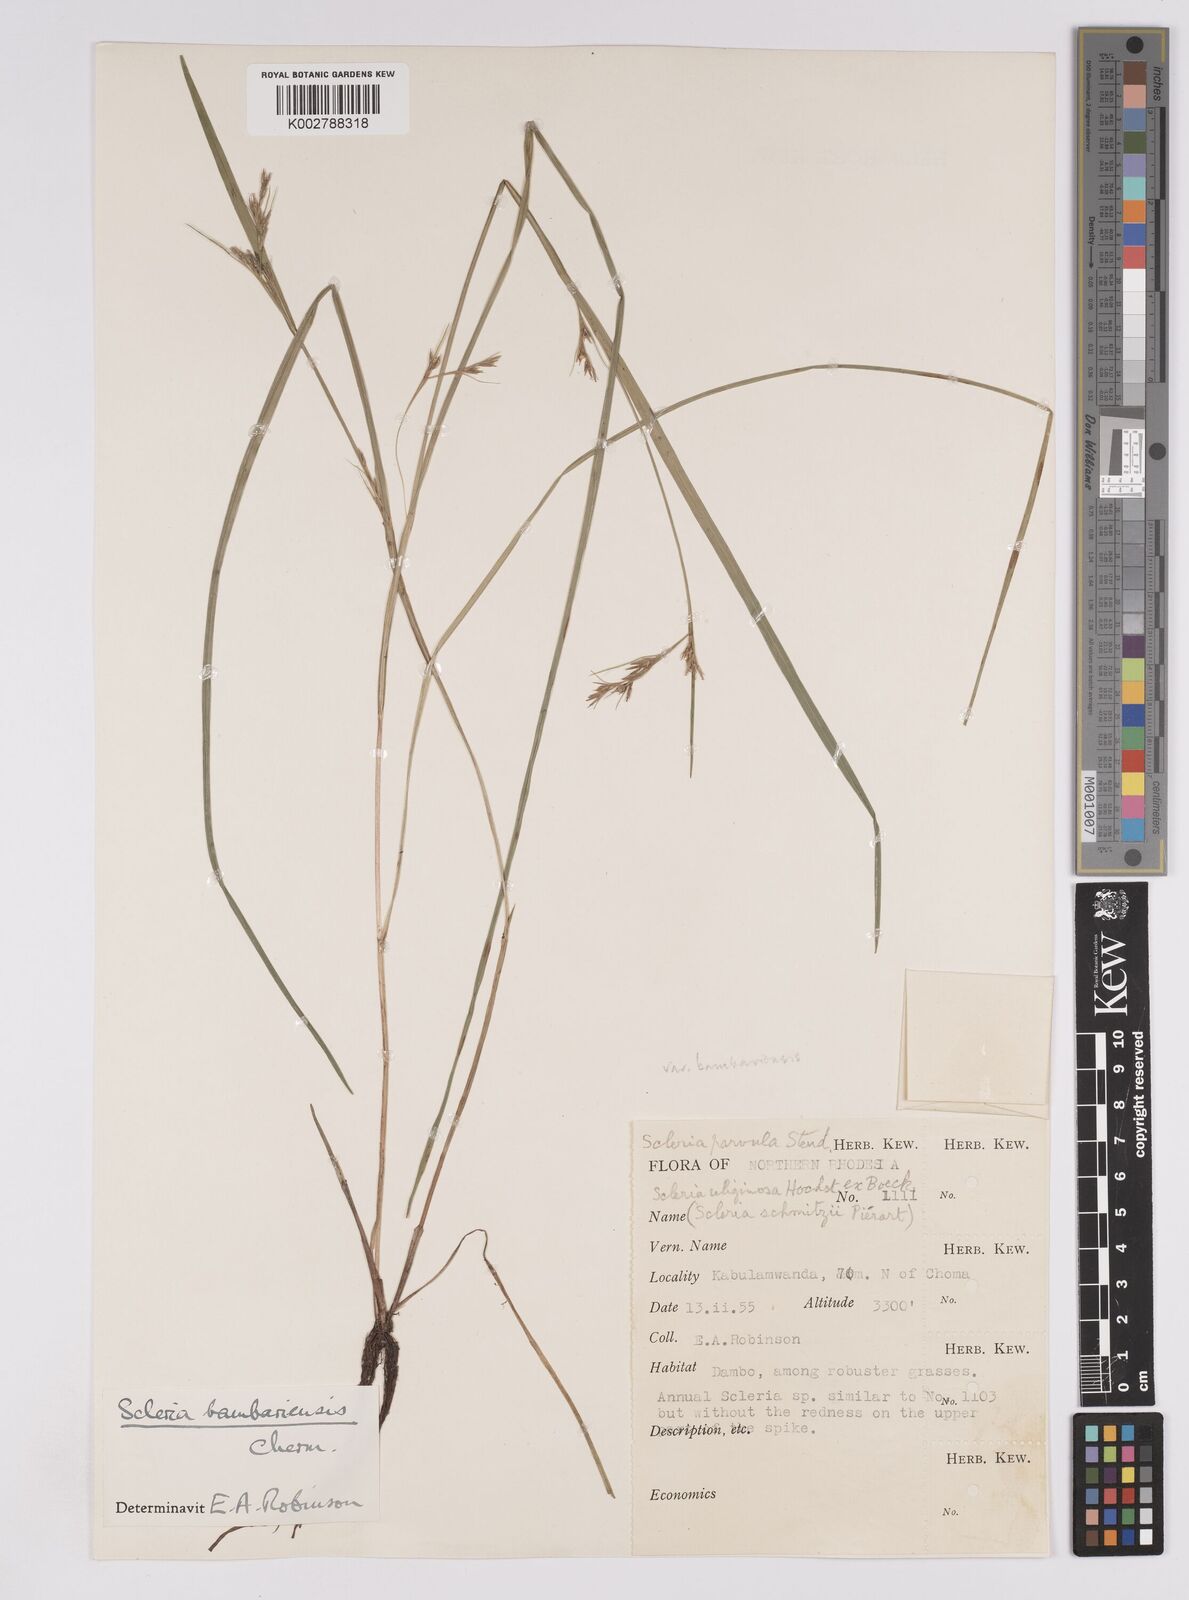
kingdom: Plantae
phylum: Tracheophyta
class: Liliopsida
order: Poales
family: Cyperaceae
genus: Scleria
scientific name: Scleria bambariensis
